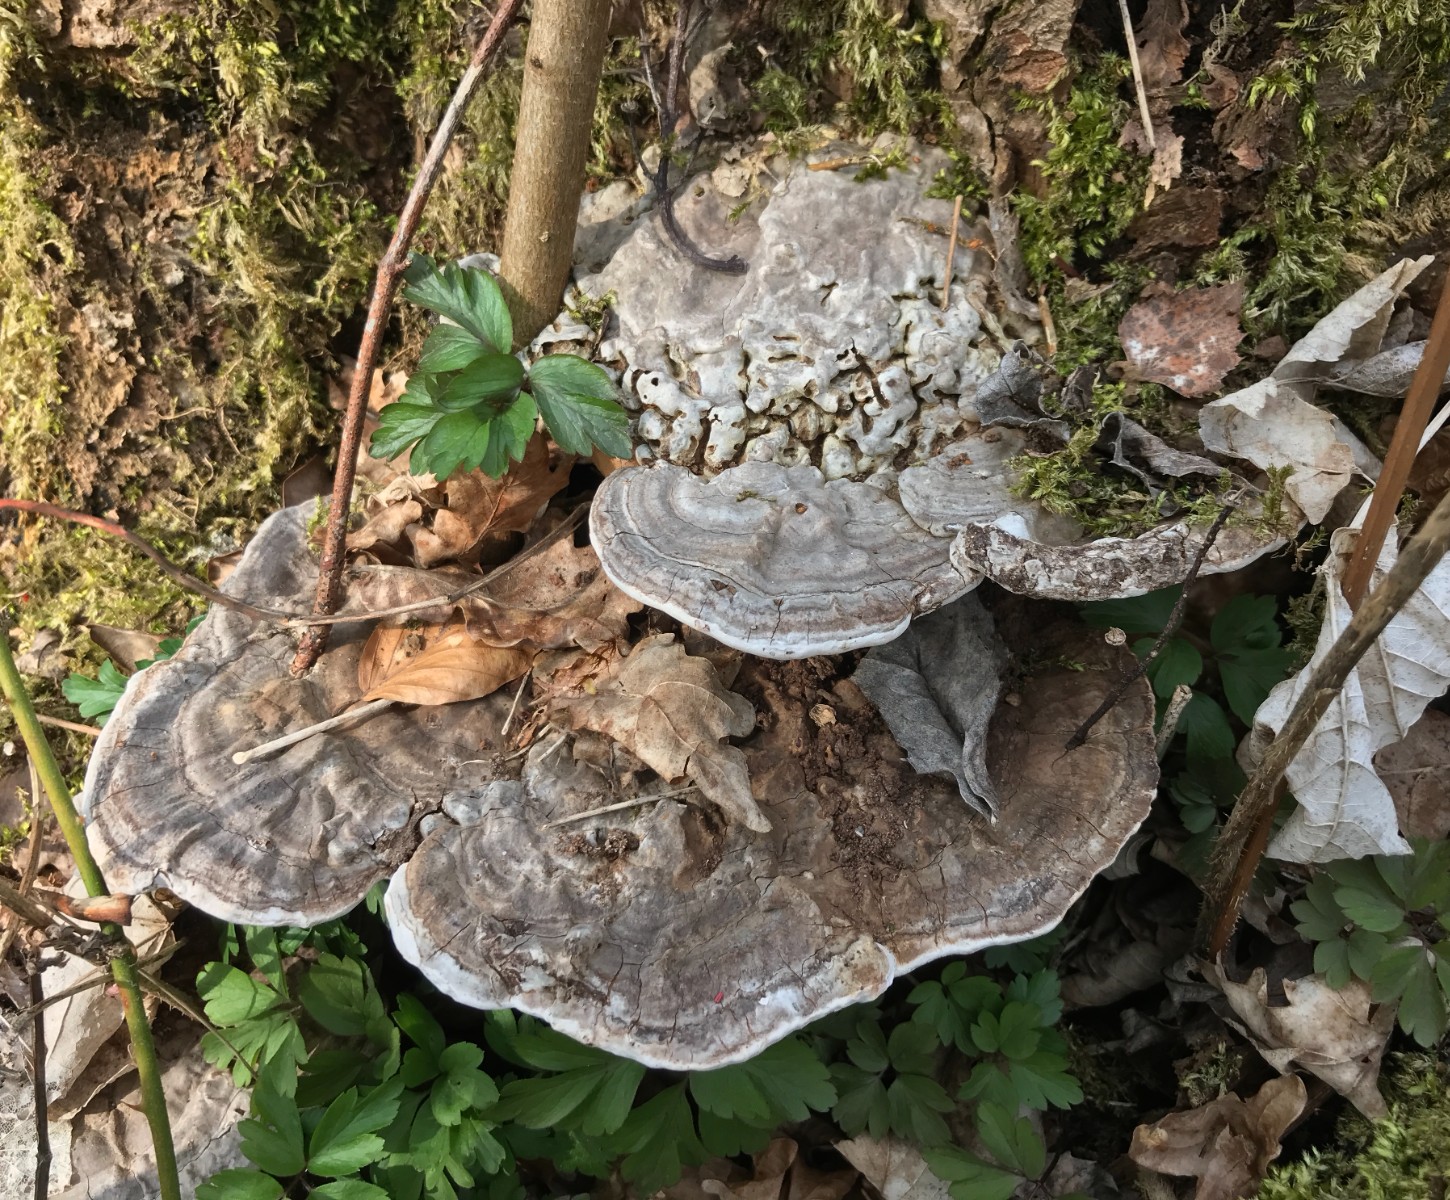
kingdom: Fungi
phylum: Basidiomycota
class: Agaricomycetes
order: Polyporales
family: Polyporaceae
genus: Ganoderma
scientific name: Ganoderma applanatum
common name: flad lakporesvamp
